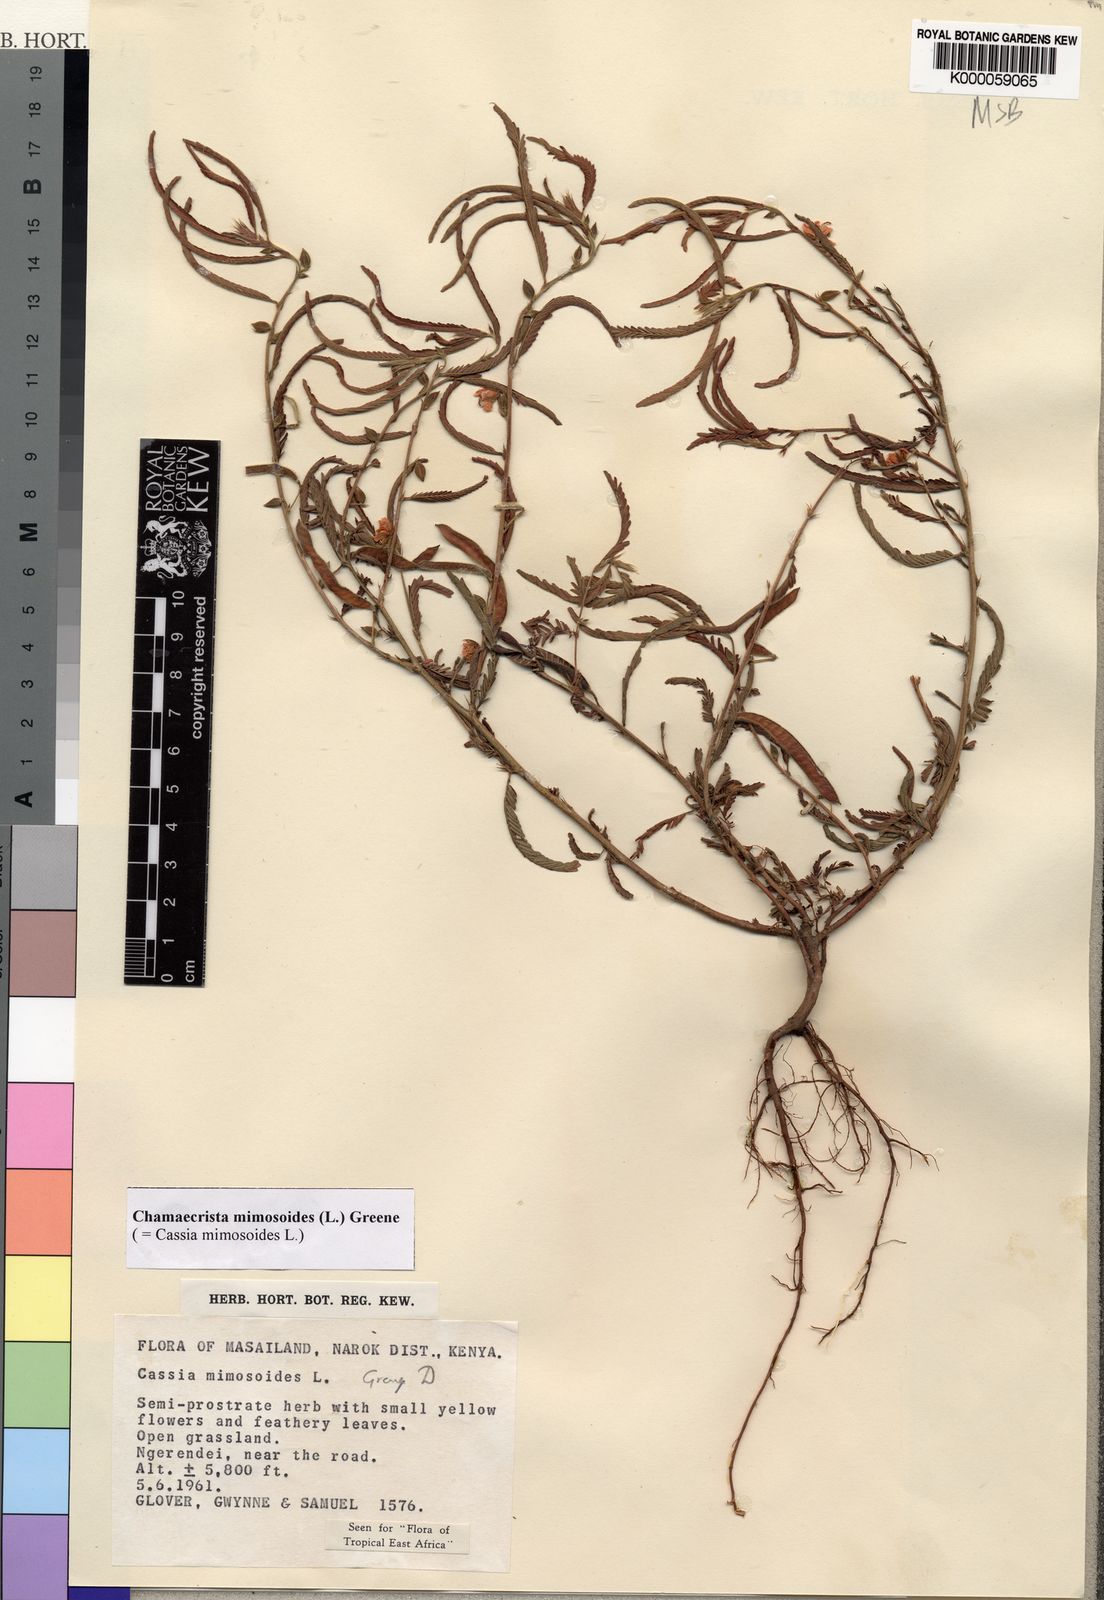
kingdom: Plantae
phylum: Tracheophyta
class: Magnoliopsida
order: Fabales
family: Fabaceae
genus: Chamaecrista
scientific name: Chamaecrista mimosoides
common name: Fish-bone cassia
